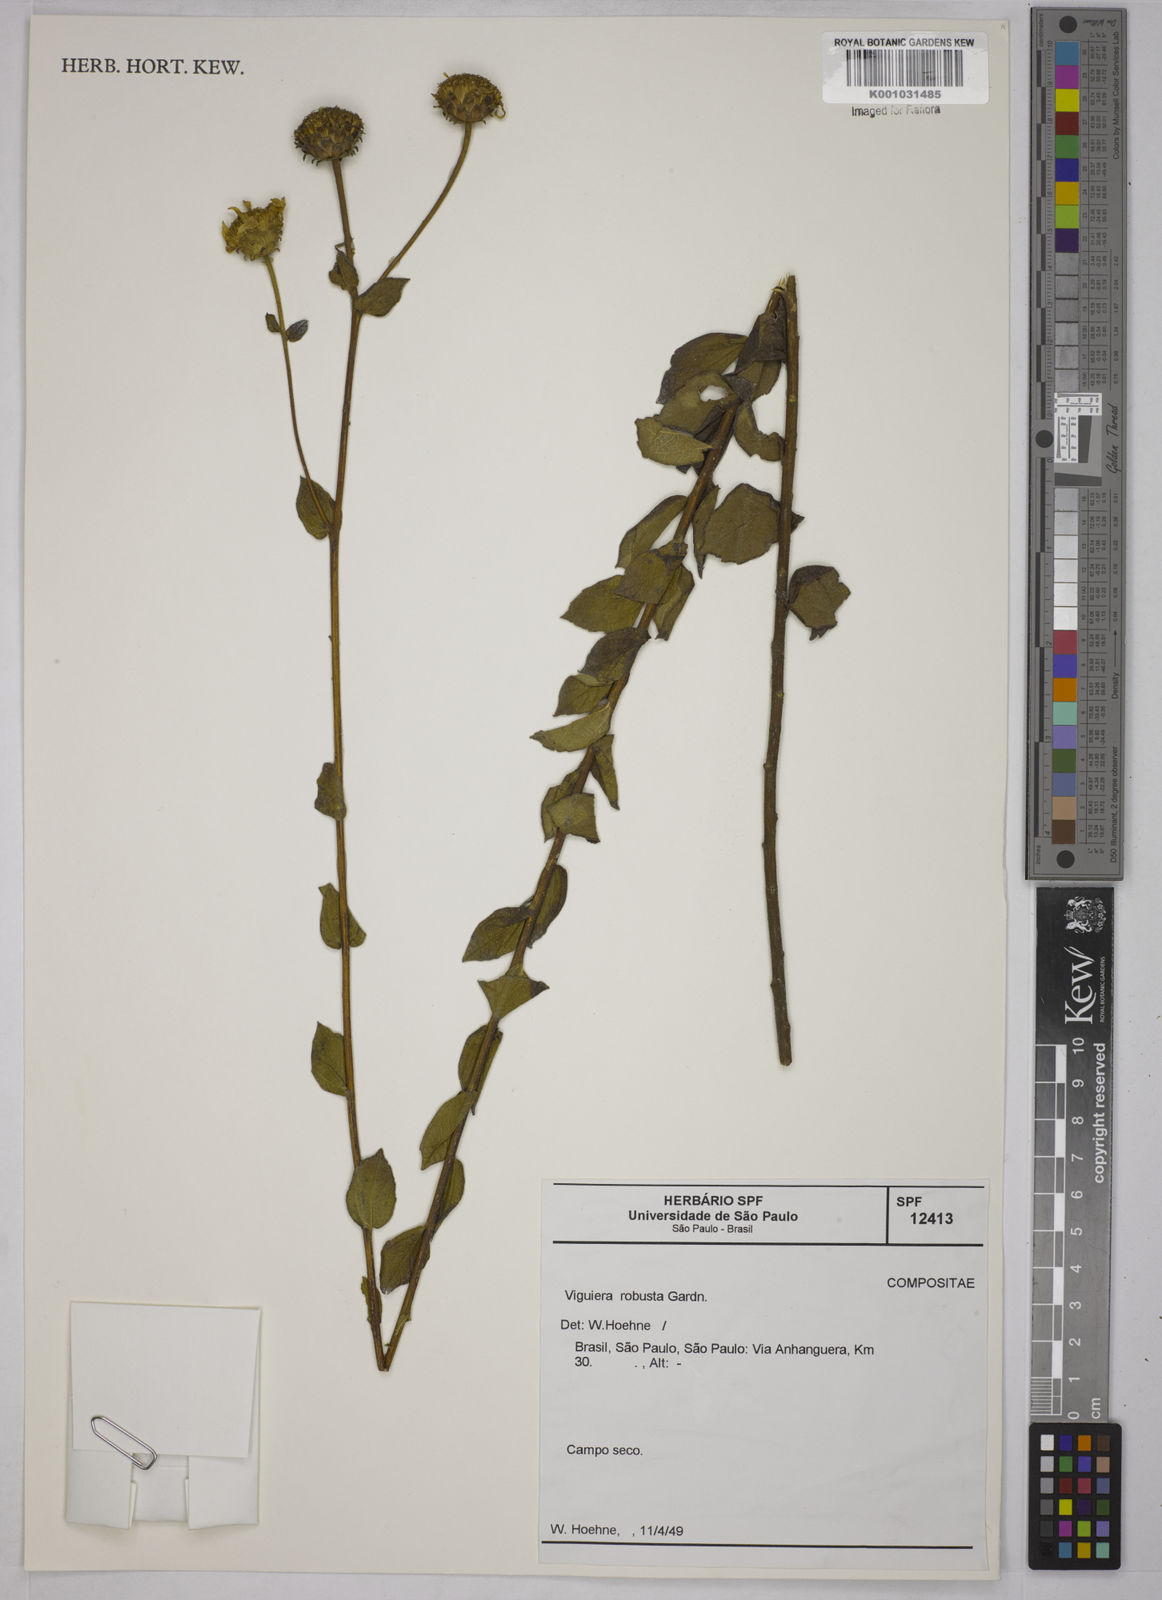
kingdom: Plantae
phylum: Tracheophyta
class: Magnoliopsida
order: Asterales
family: Asteraceae
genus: Aldama
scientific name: Aldama robusta
